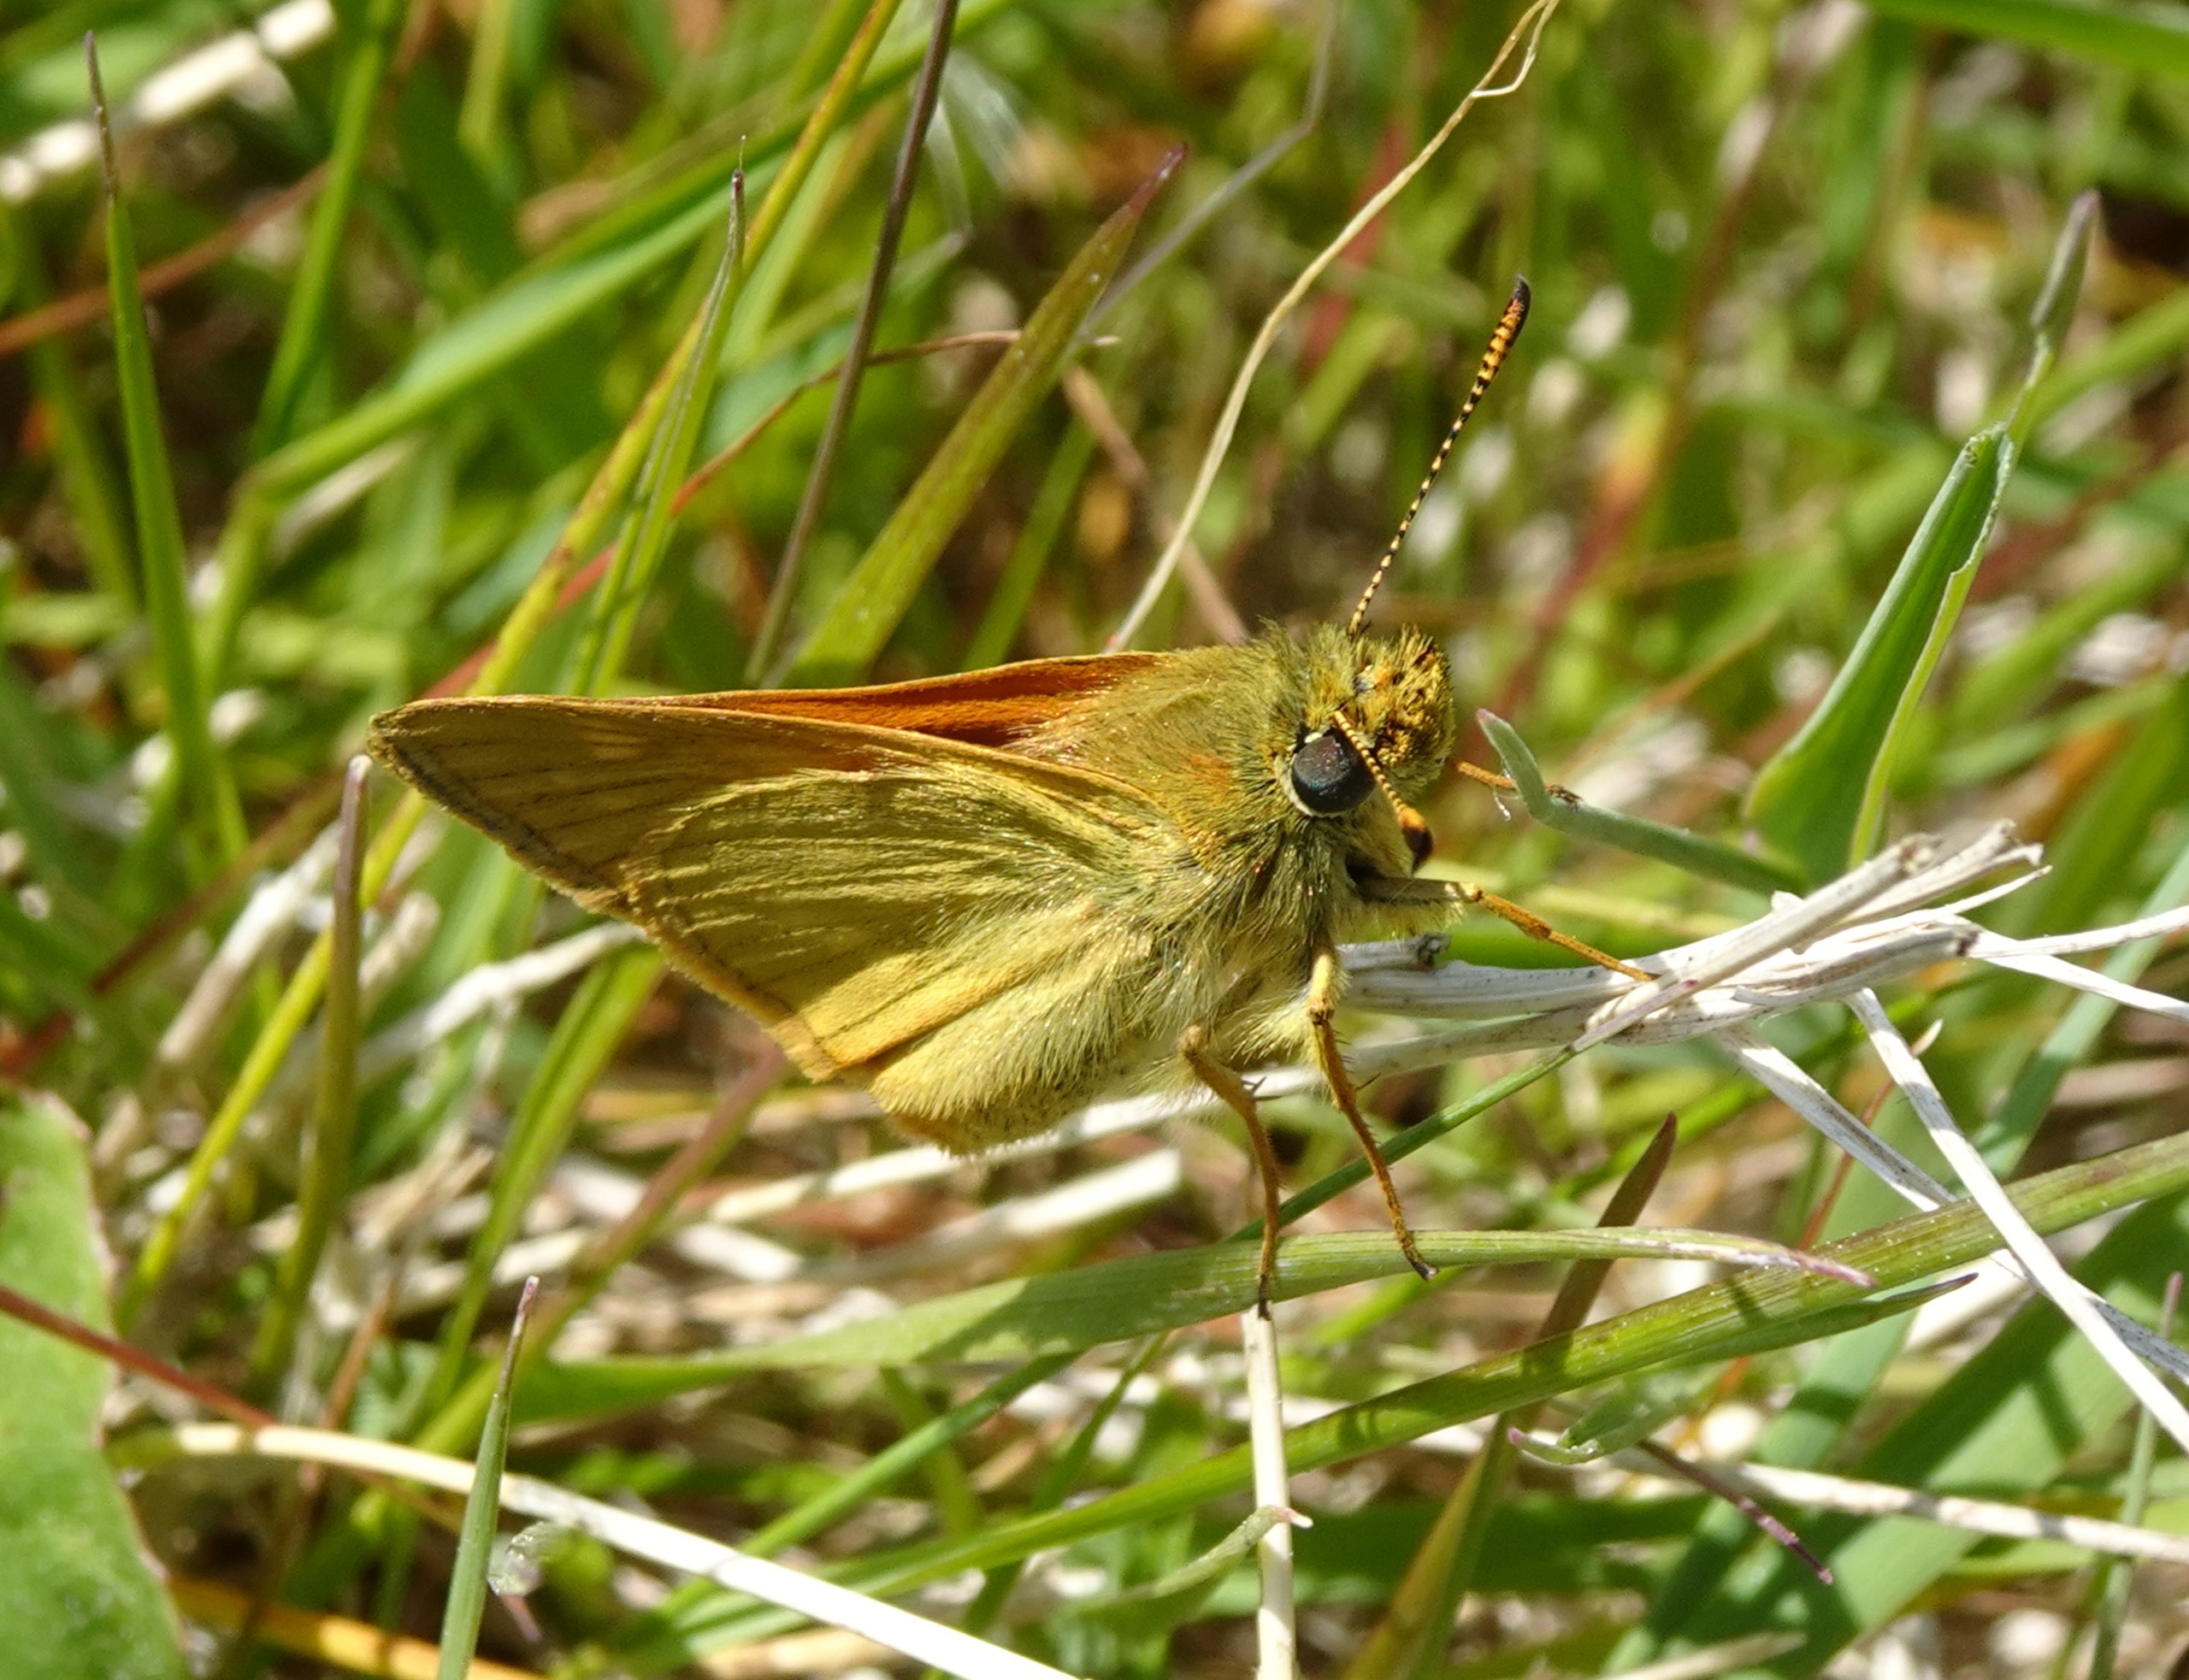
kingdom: Animalia
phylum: Arthropoda
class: Insecta
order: Lepidoptera
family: Hesperiidae
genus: Ochlodes
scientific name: Ochlodes venata
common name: Stor bredpande
